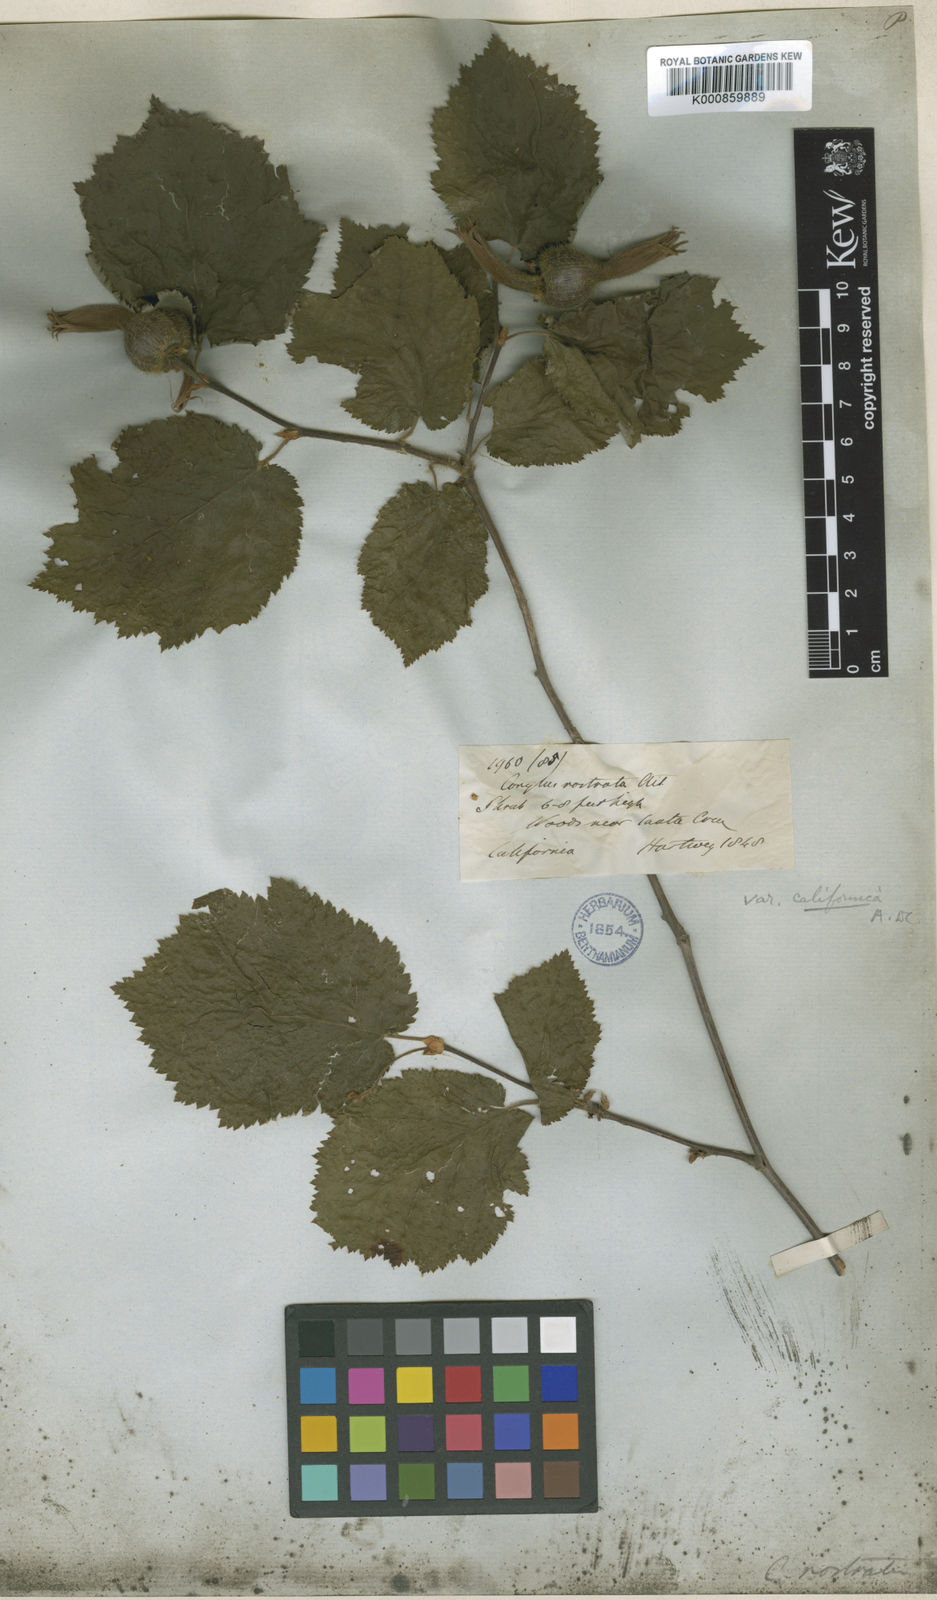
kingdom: Plantae
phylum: Tracheophyta
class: Magnoliopsida
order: Fagales
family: Betulaceae
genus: Corylus
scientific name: Corylus cornuta
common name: Beaked hazel
